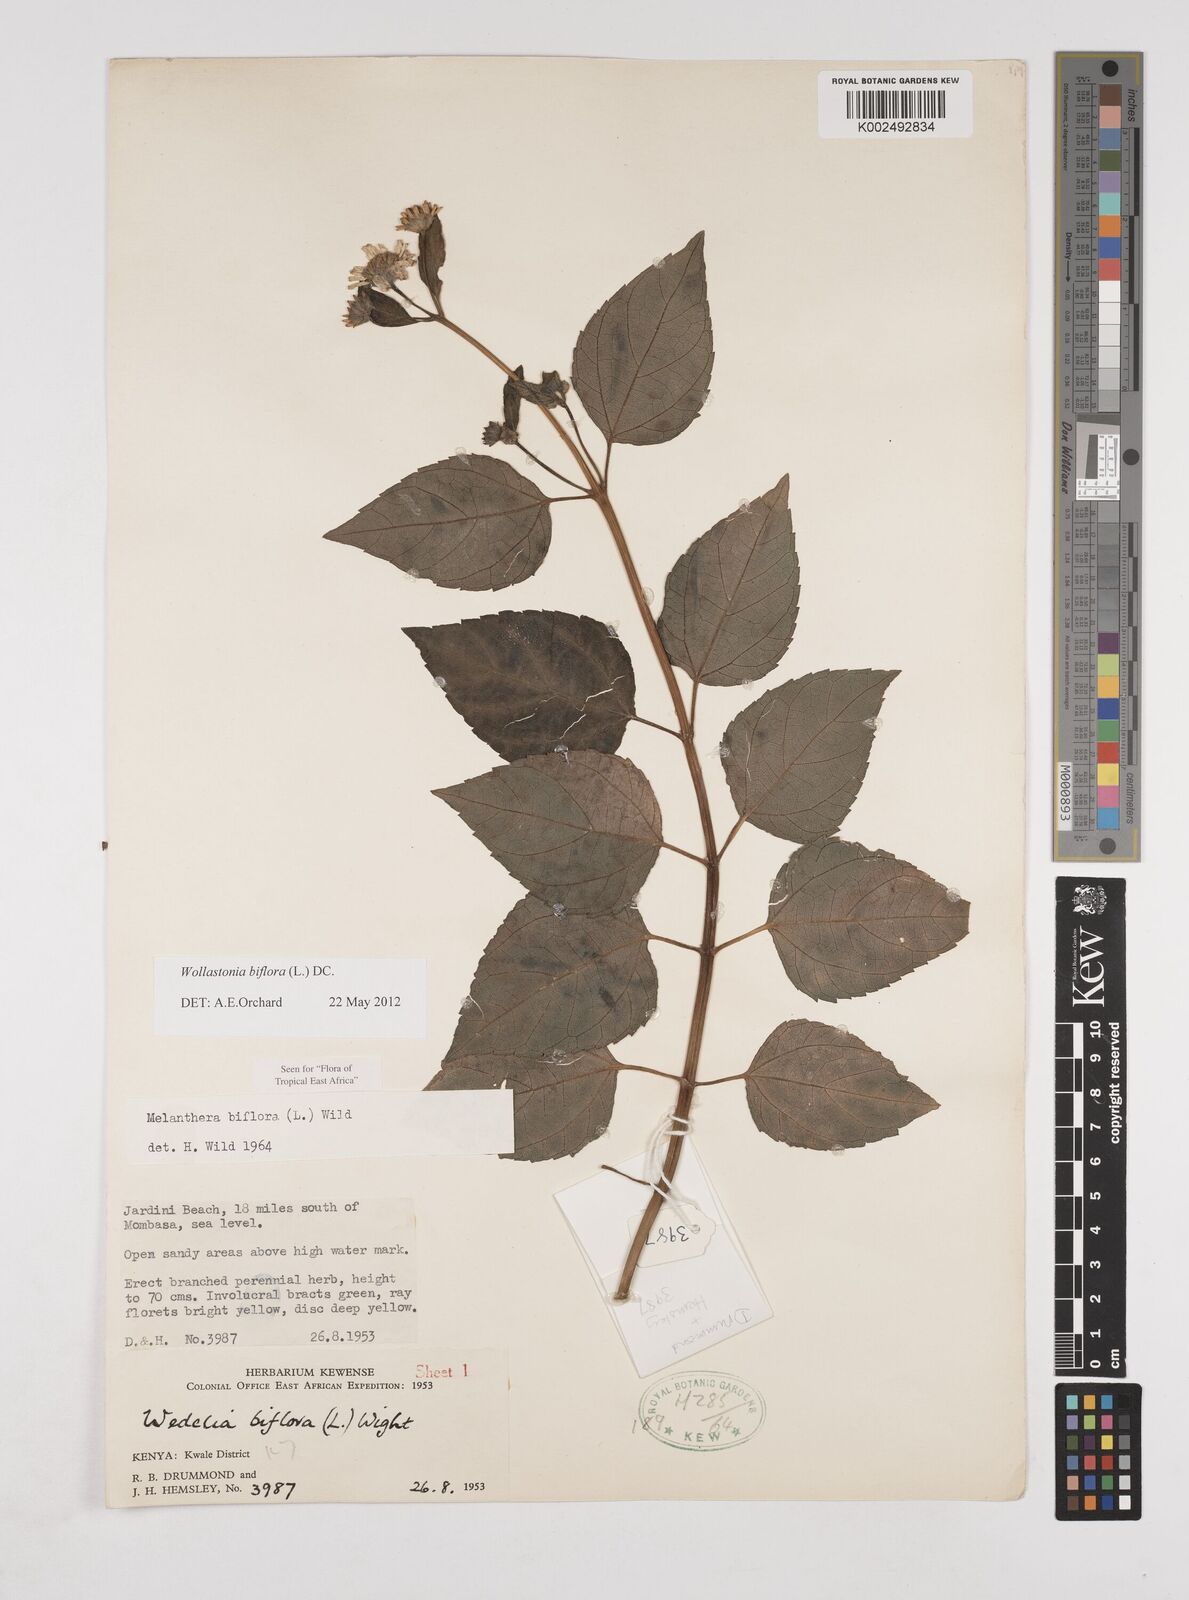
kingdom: Plantae
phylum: Tracheophyta
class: Magnoliopsida
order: Asterales
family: Asteraceae
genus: Wollastonia
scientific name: Wollastonia biflora
